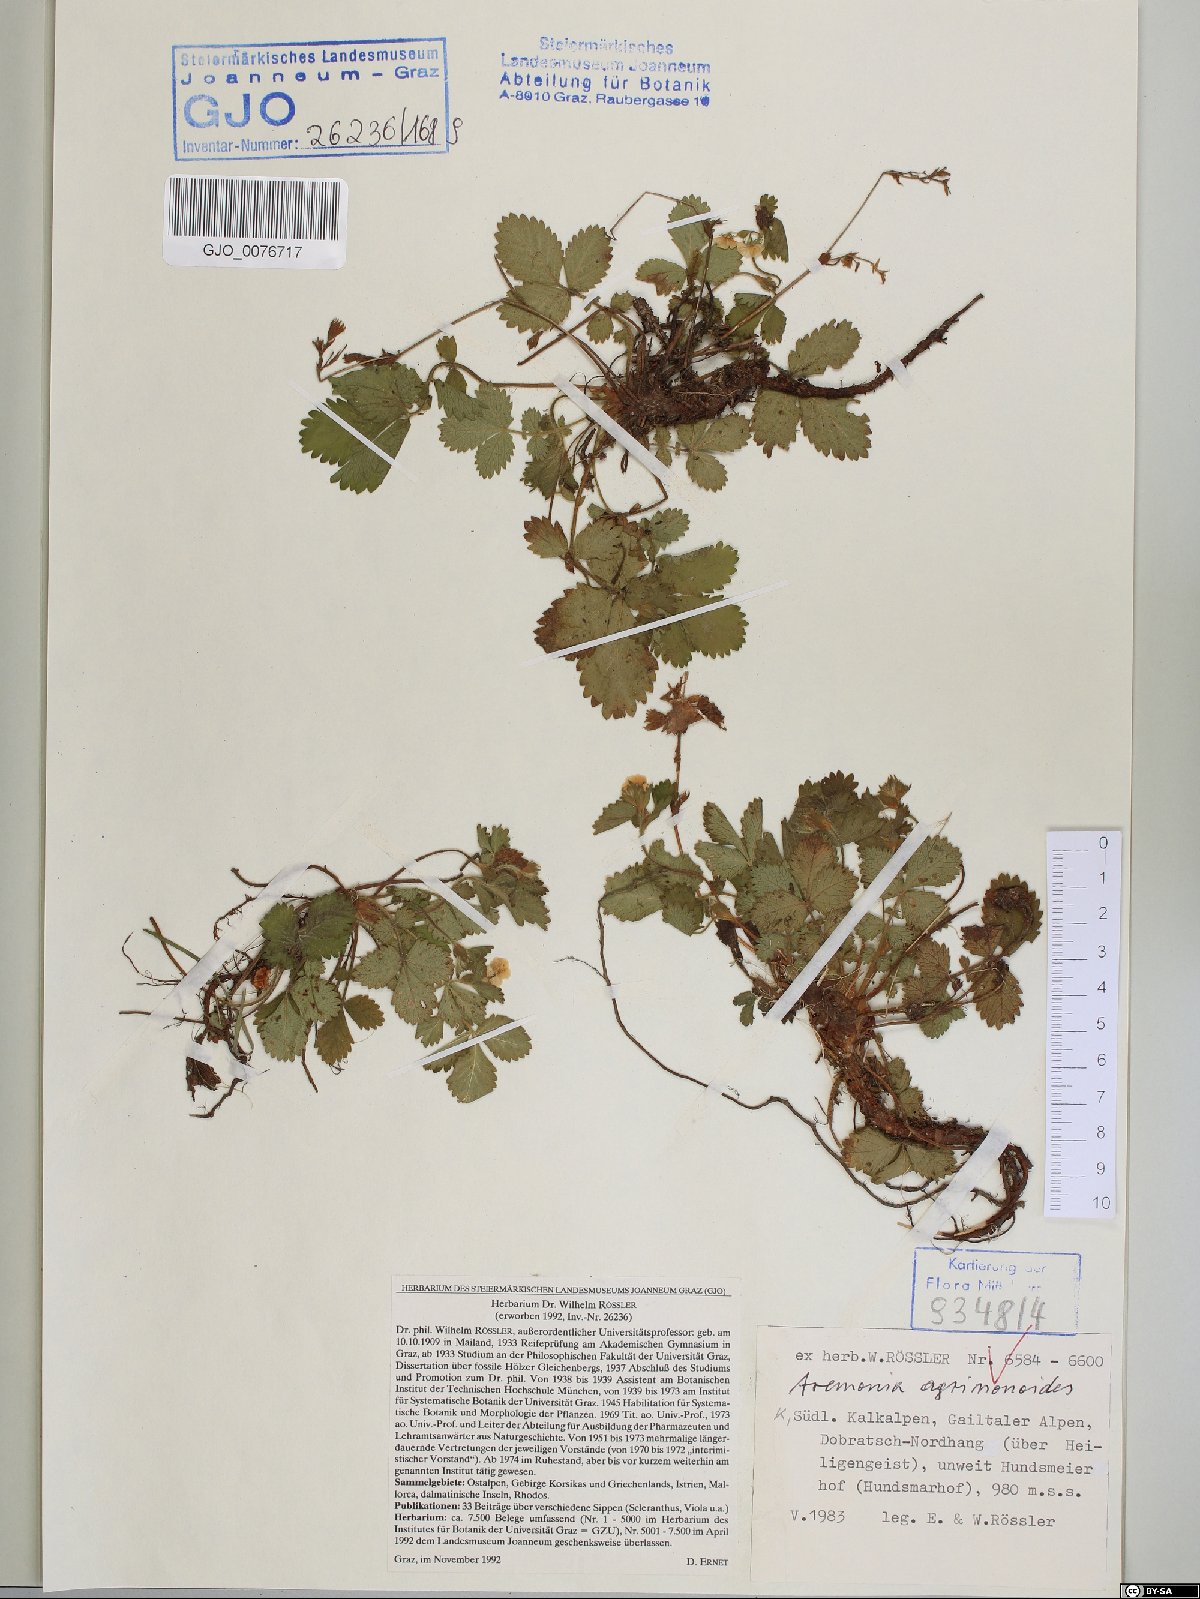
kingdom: Plantae
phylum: Tracheophyta
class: Magnoliopsida
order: Rosales
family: Rosaceae
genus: Aremonia
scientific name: Aremonia agrimonoides
